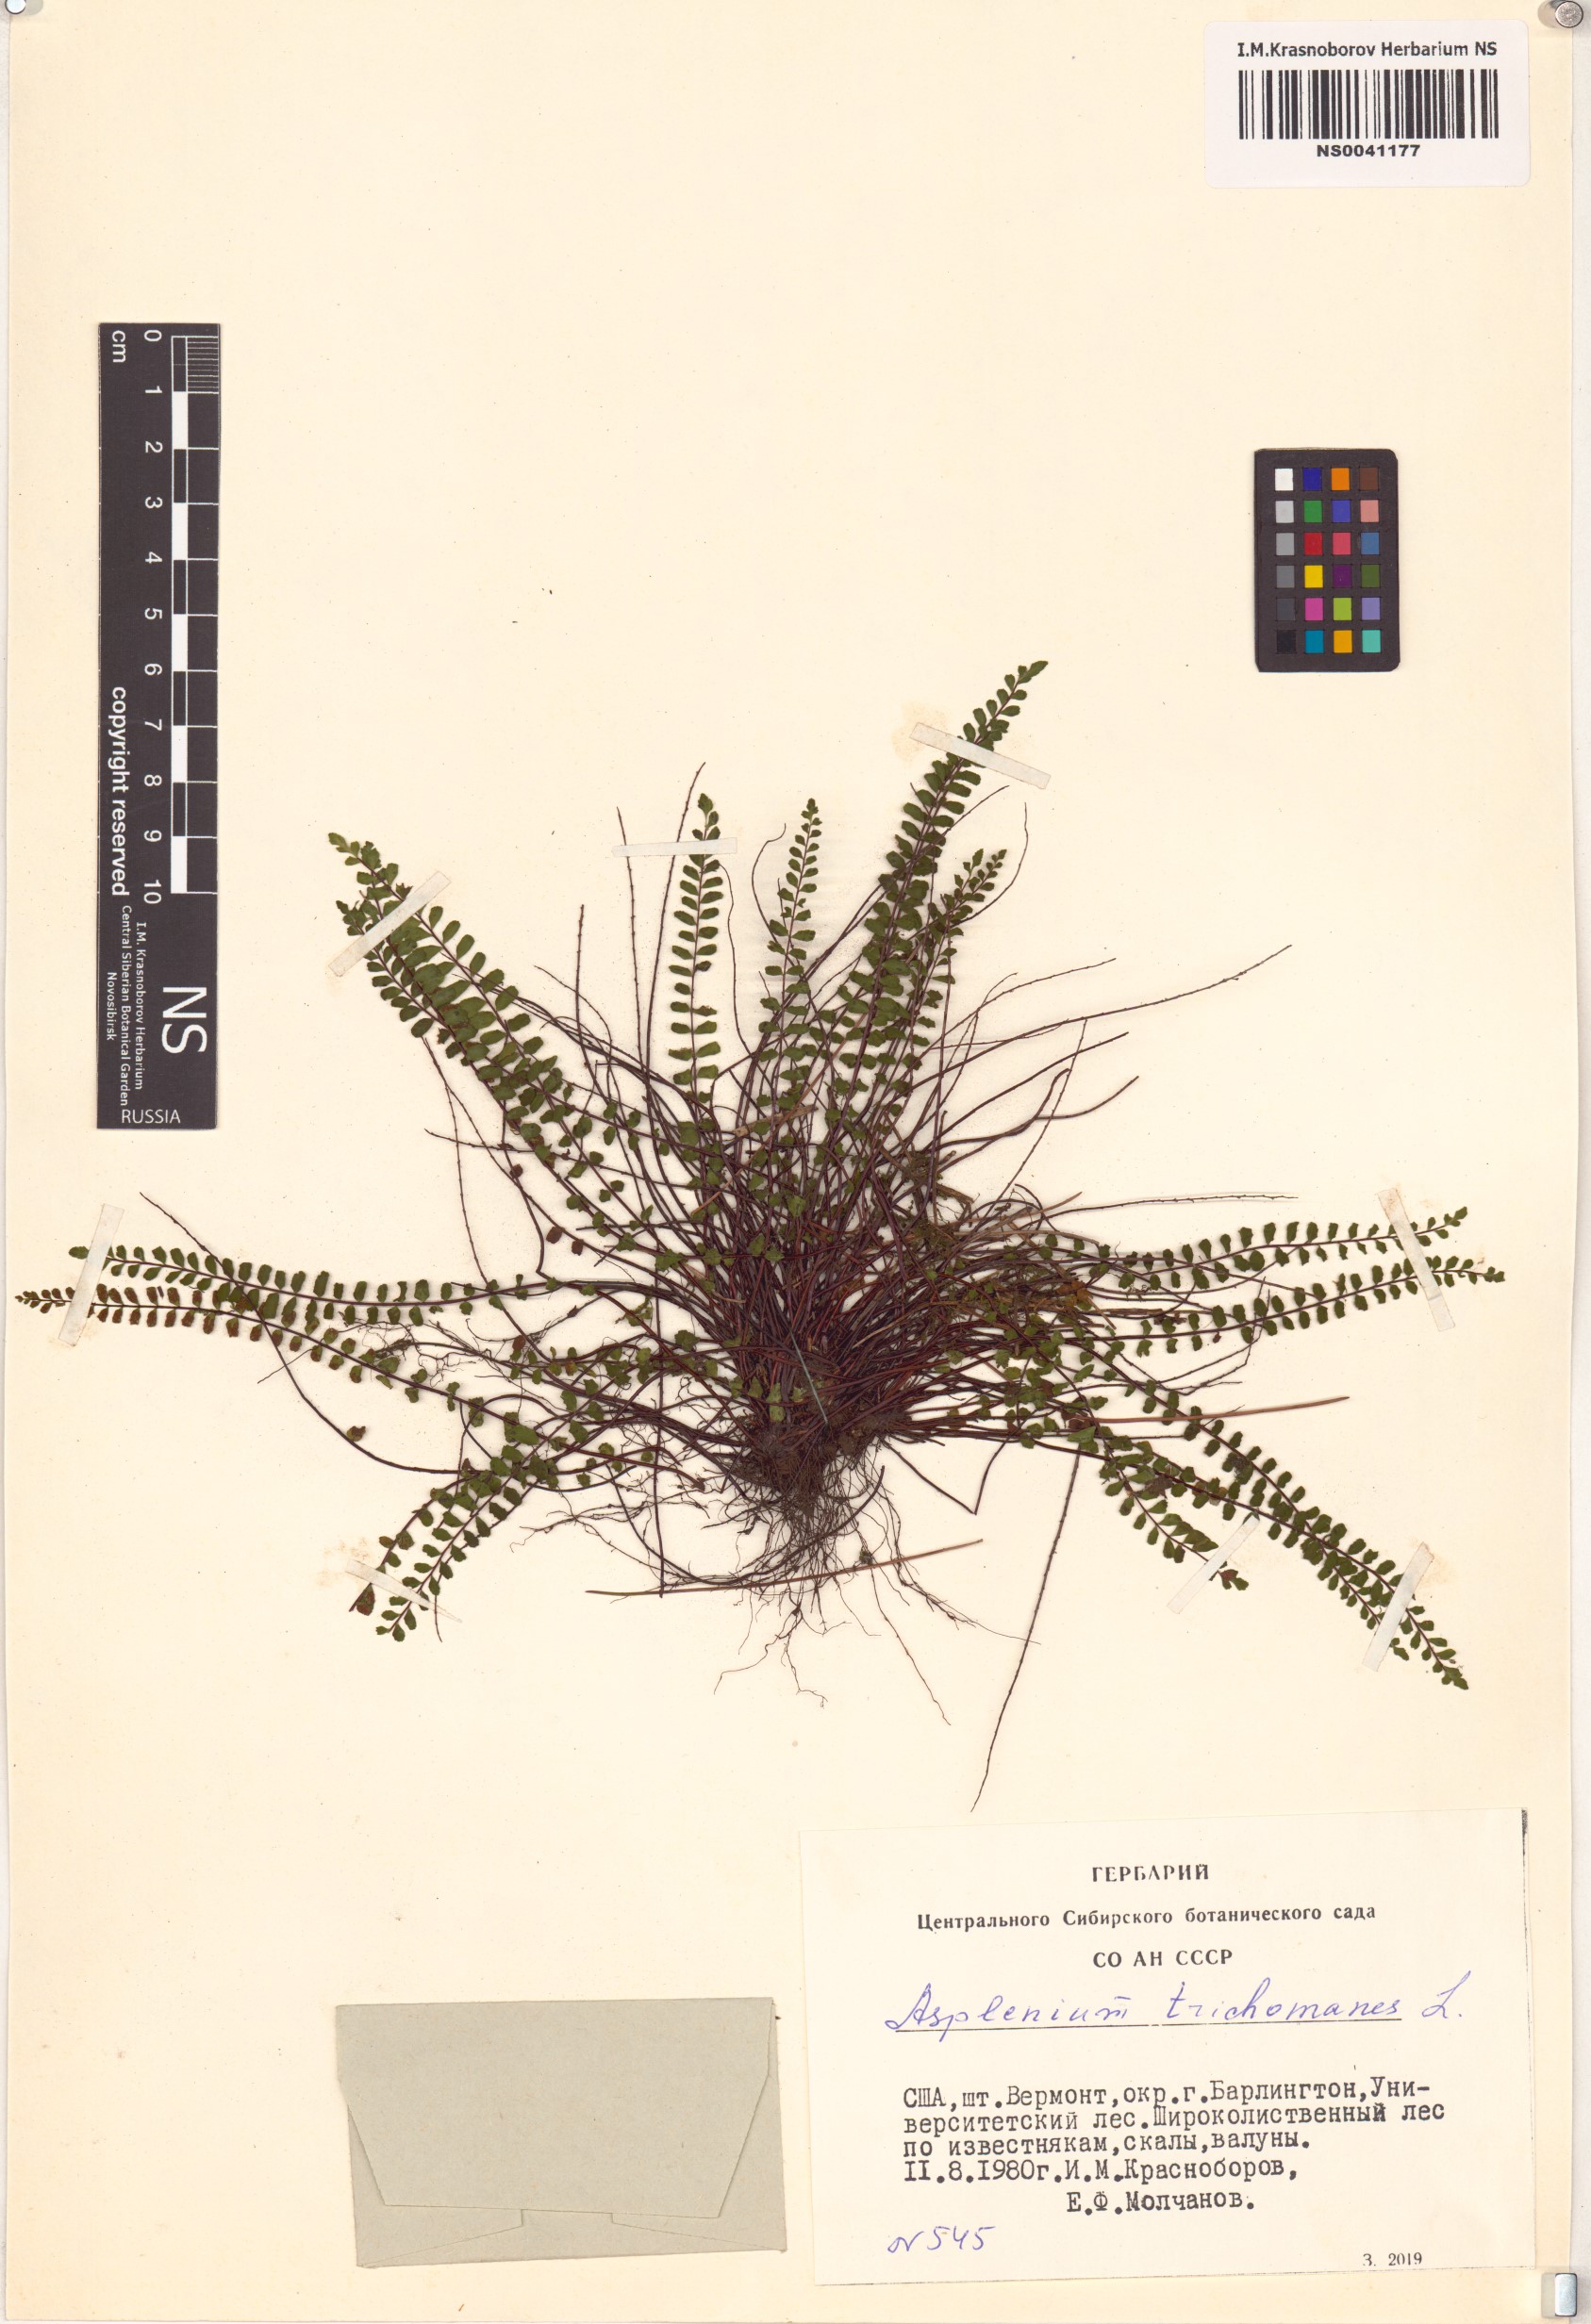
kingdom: Plantae
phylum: Tracheophyta
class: Polypodiopsida
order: Polypodiales
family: Aspleniaceae
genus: Asplenium
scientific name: Asplenium trichomanes
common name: Maidenhair spleenwort
